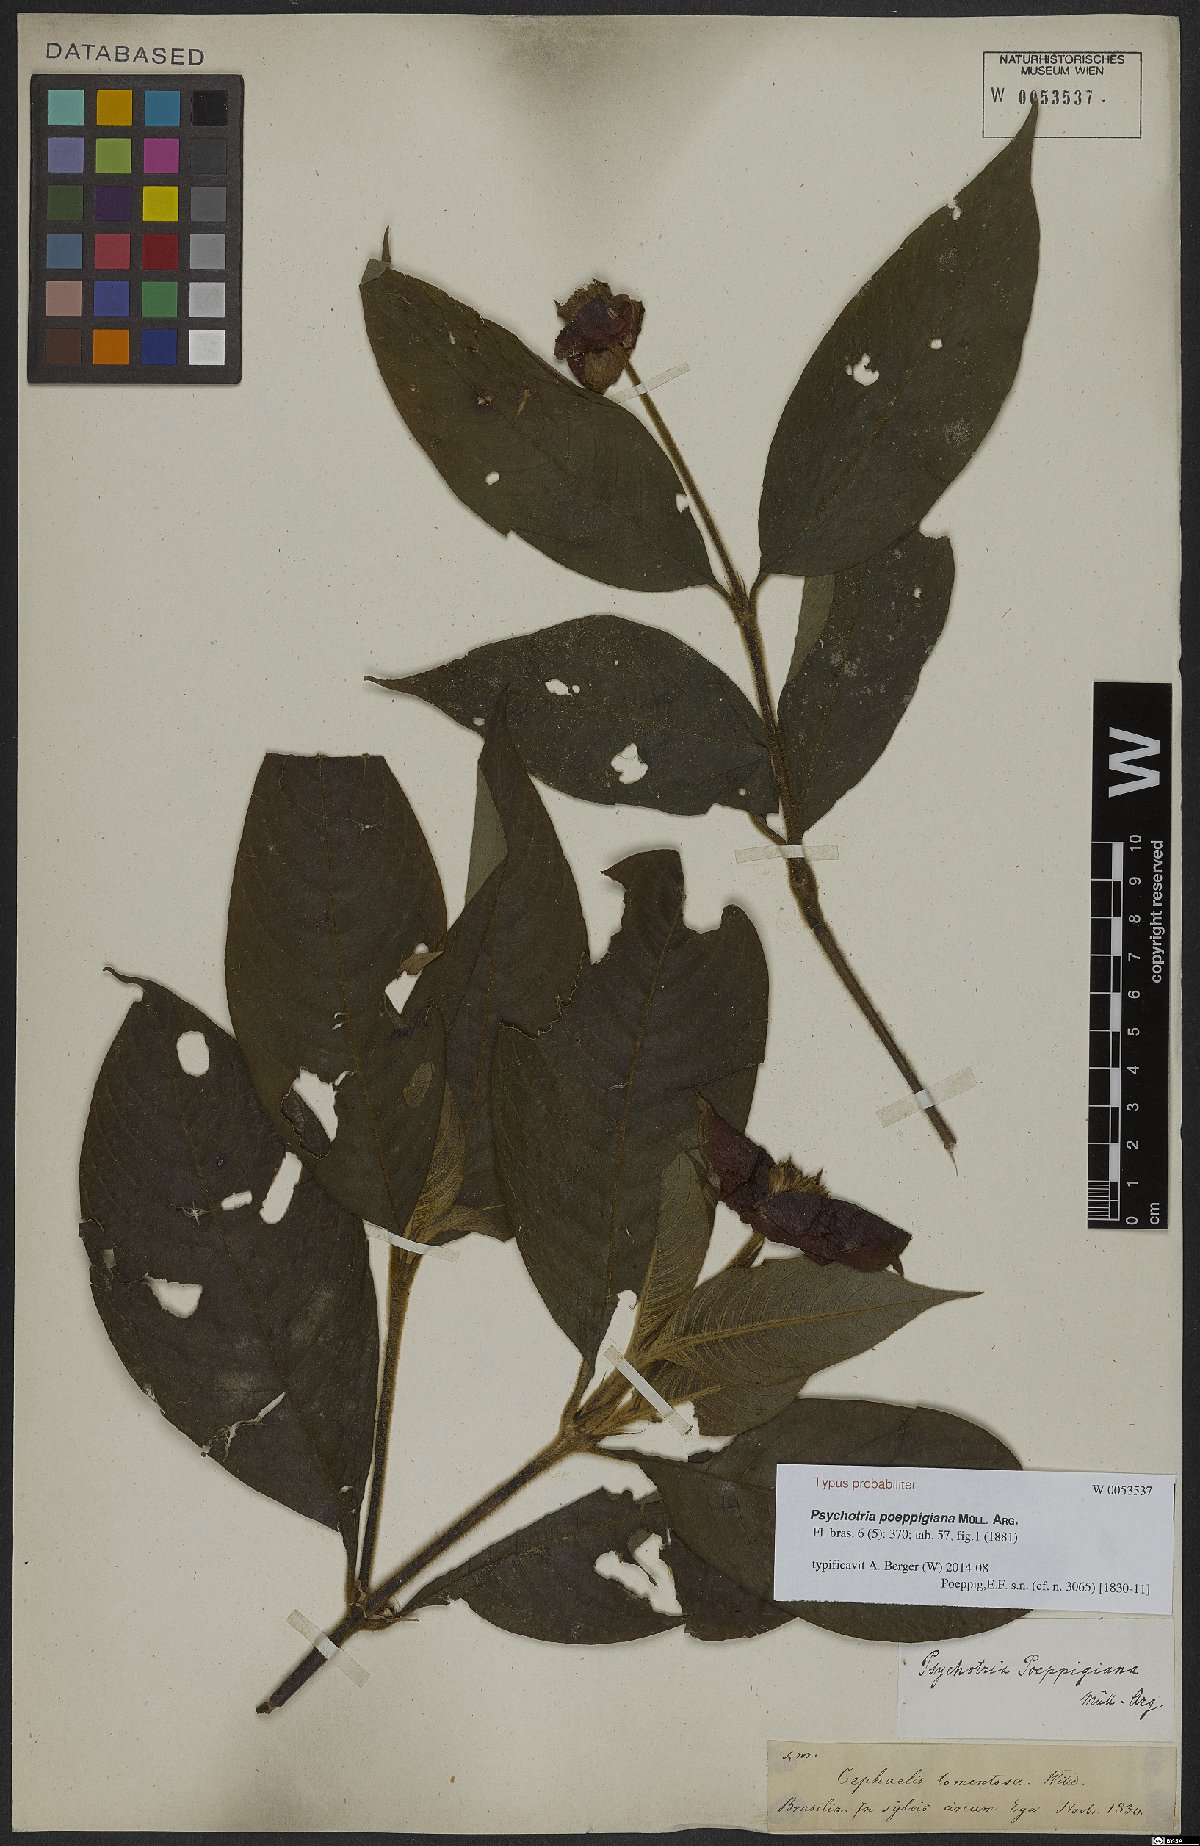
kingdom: Plantae
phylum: Tracheophyta
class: Magnoliopsida
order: Gentianales
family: Rubiaceae
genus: Palicourea
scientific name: Palicourea tomentosa
